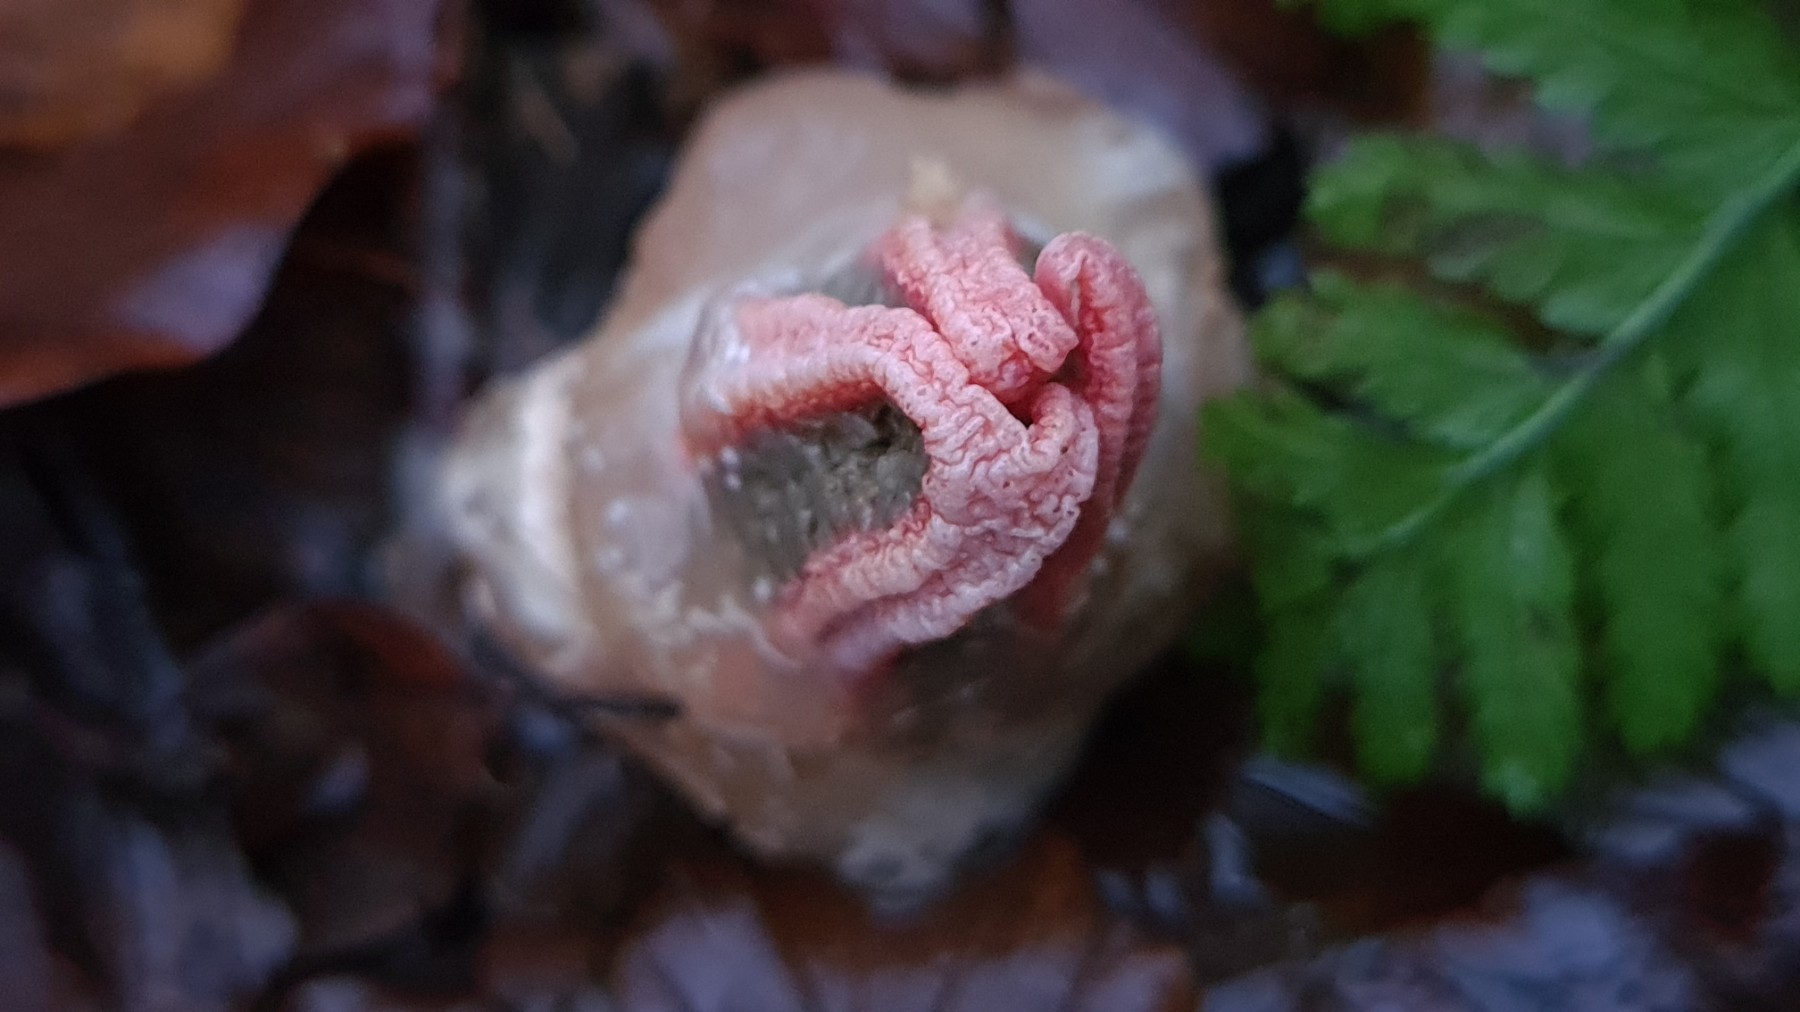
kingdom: Fungi
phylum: Basidiomycota
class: Agaricomycetes
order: Phallales
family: Phallaceae
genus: Clathrus
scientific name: Clathrus archeri
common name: blækspruttesvamp
